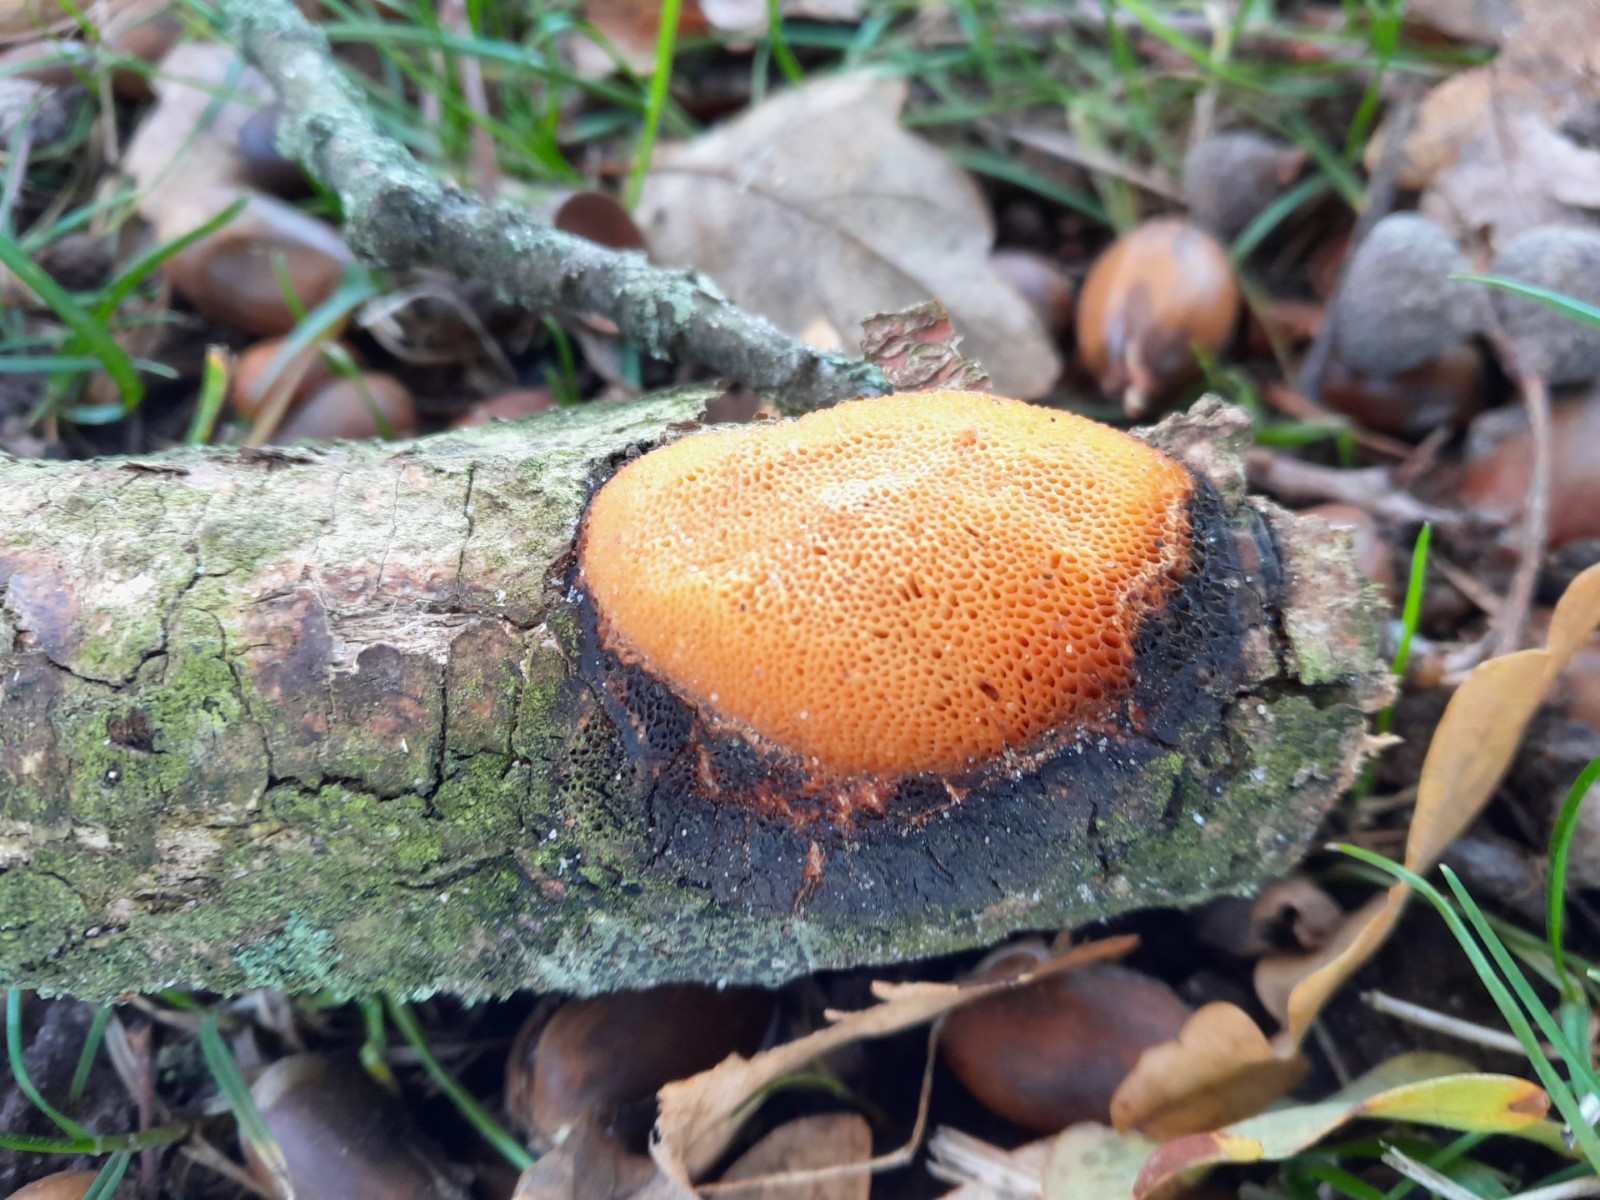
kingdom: Fungi
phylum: Basidiomycota
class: Agaricomycetes
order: Polyporales
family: Polyporaceae
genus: Szczepkamyces
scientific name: Szczepkamyces campestris
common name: hasselporesvamp
